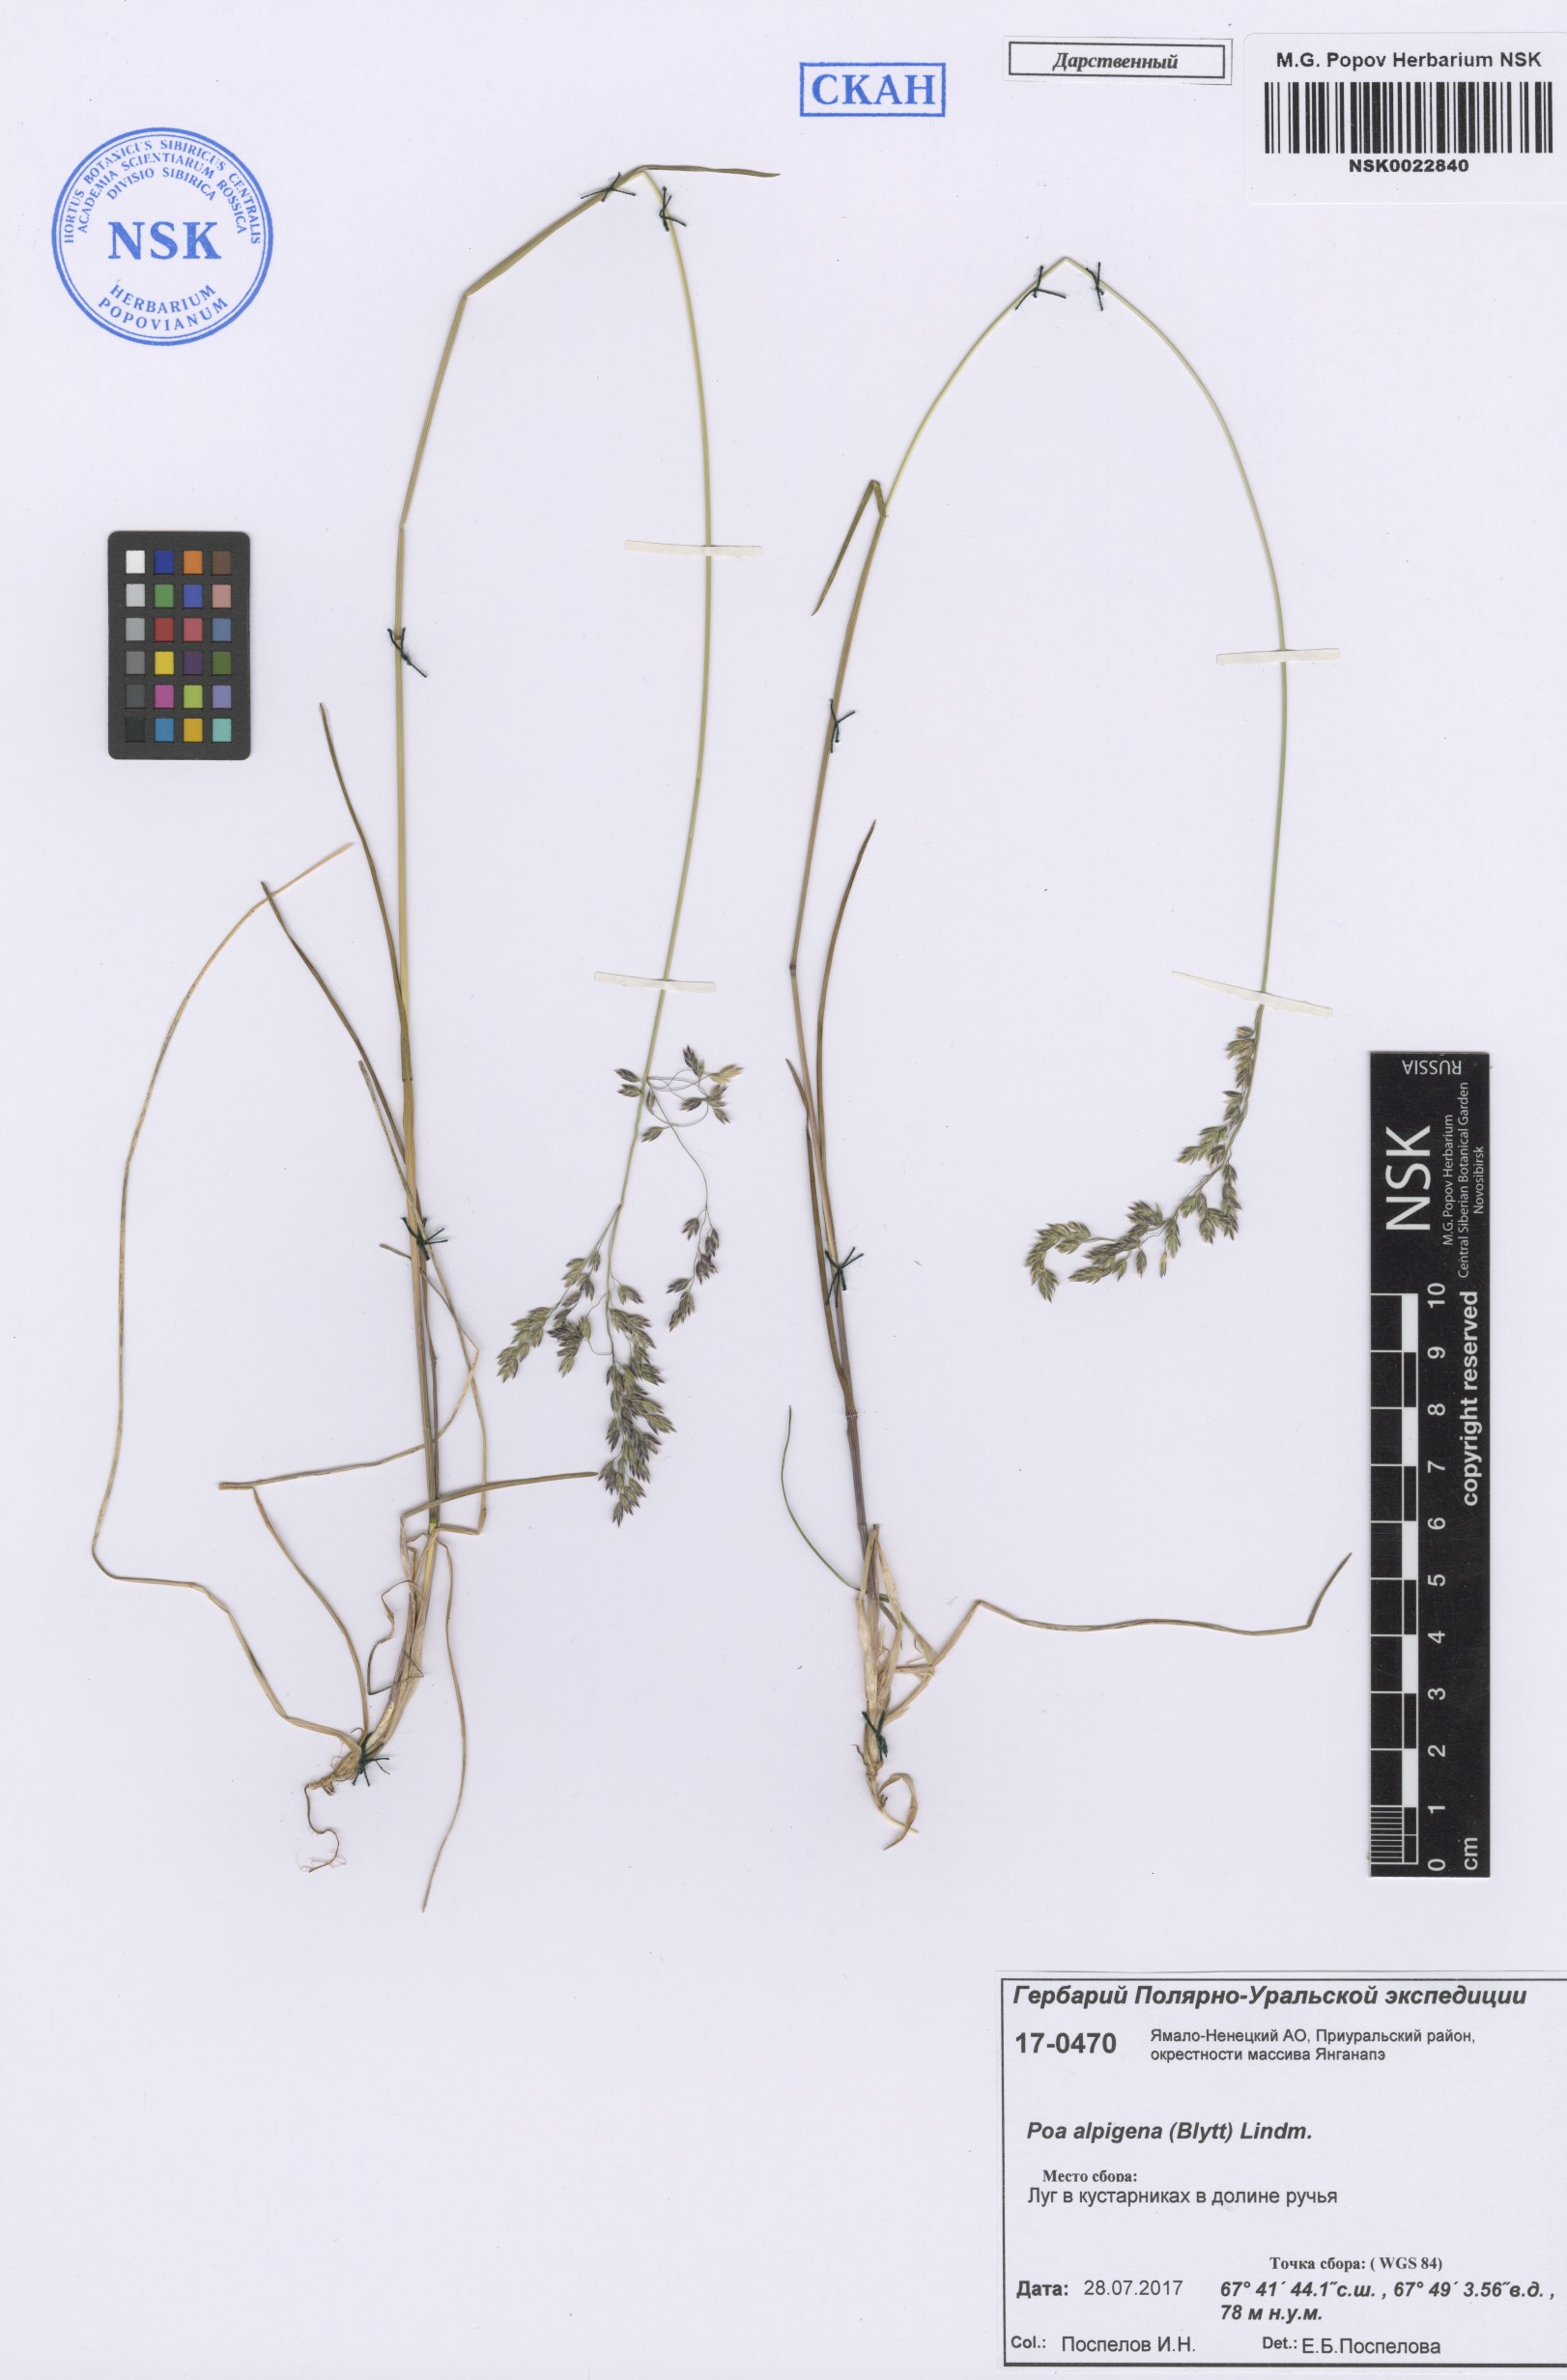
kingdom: Plantae
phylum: Tracheophyta
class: Liliopsida
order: Poales
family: Poaceae
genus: Poa
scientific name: Poa alpigena
